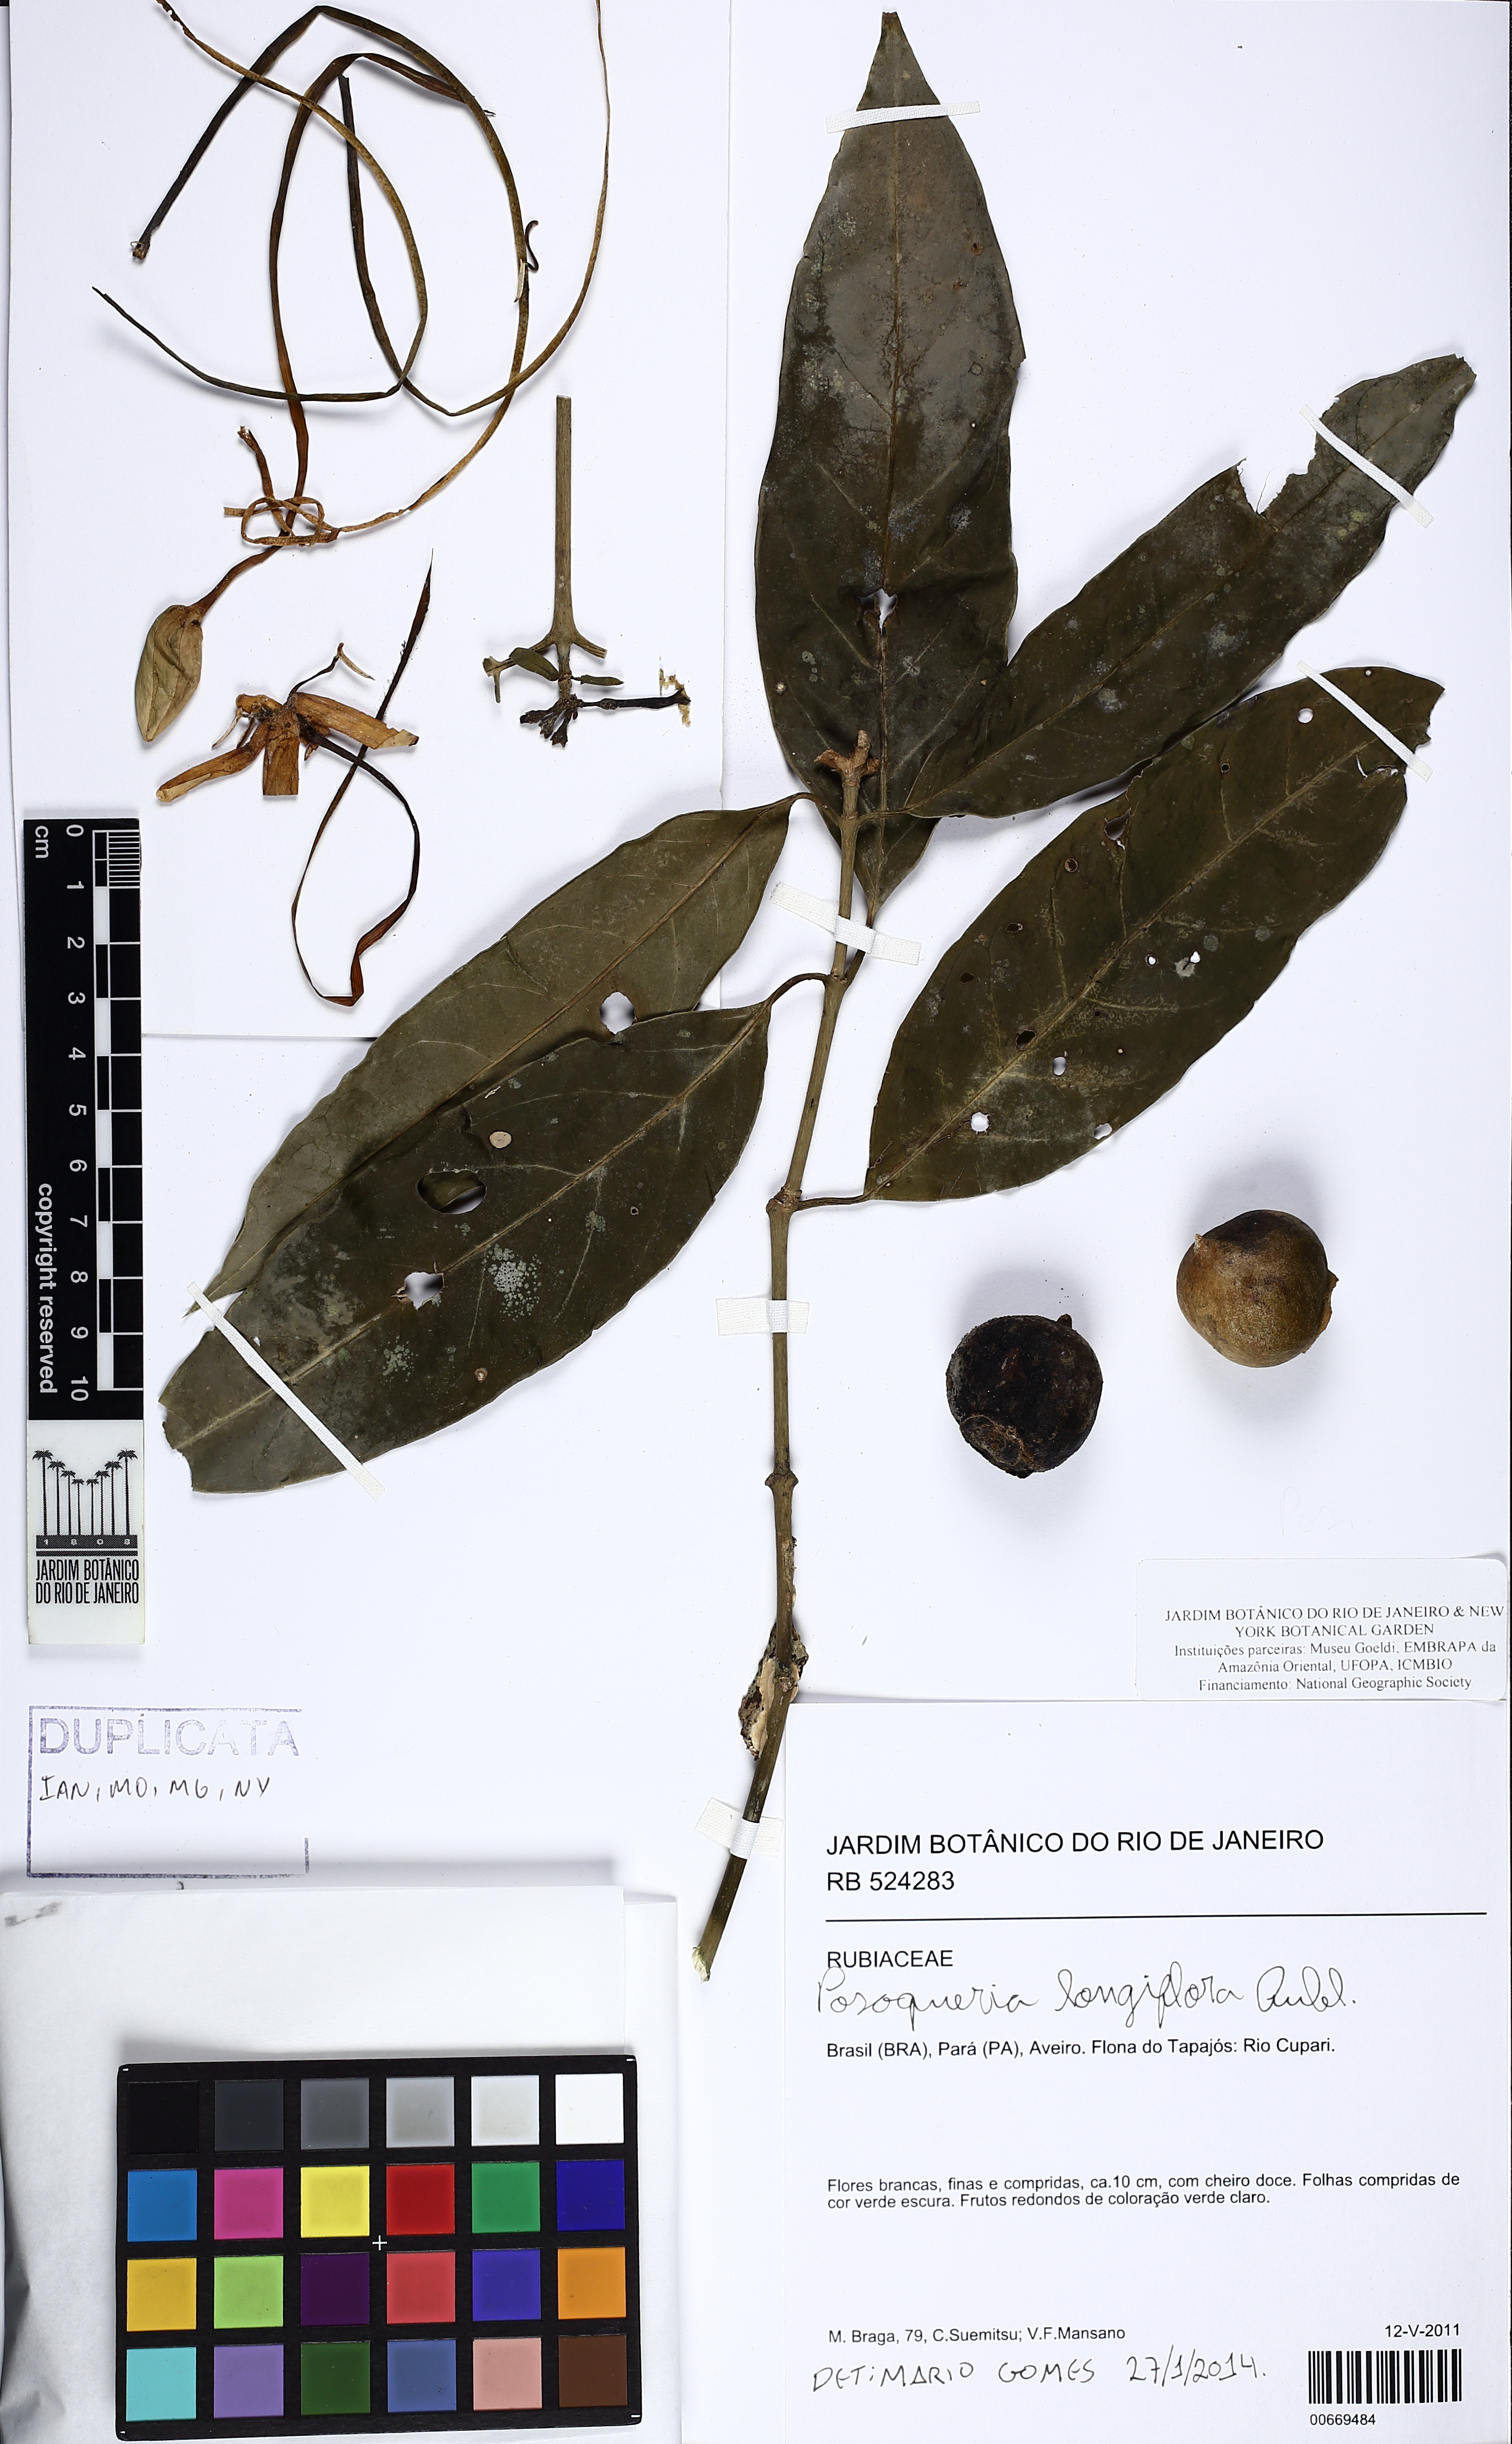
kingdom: Plantae
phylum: Tracheophyta
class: Magnoliopsida
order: Gentianales
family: Rubiaceae
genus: Posoqueria
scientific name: Posoqueria longiflora
